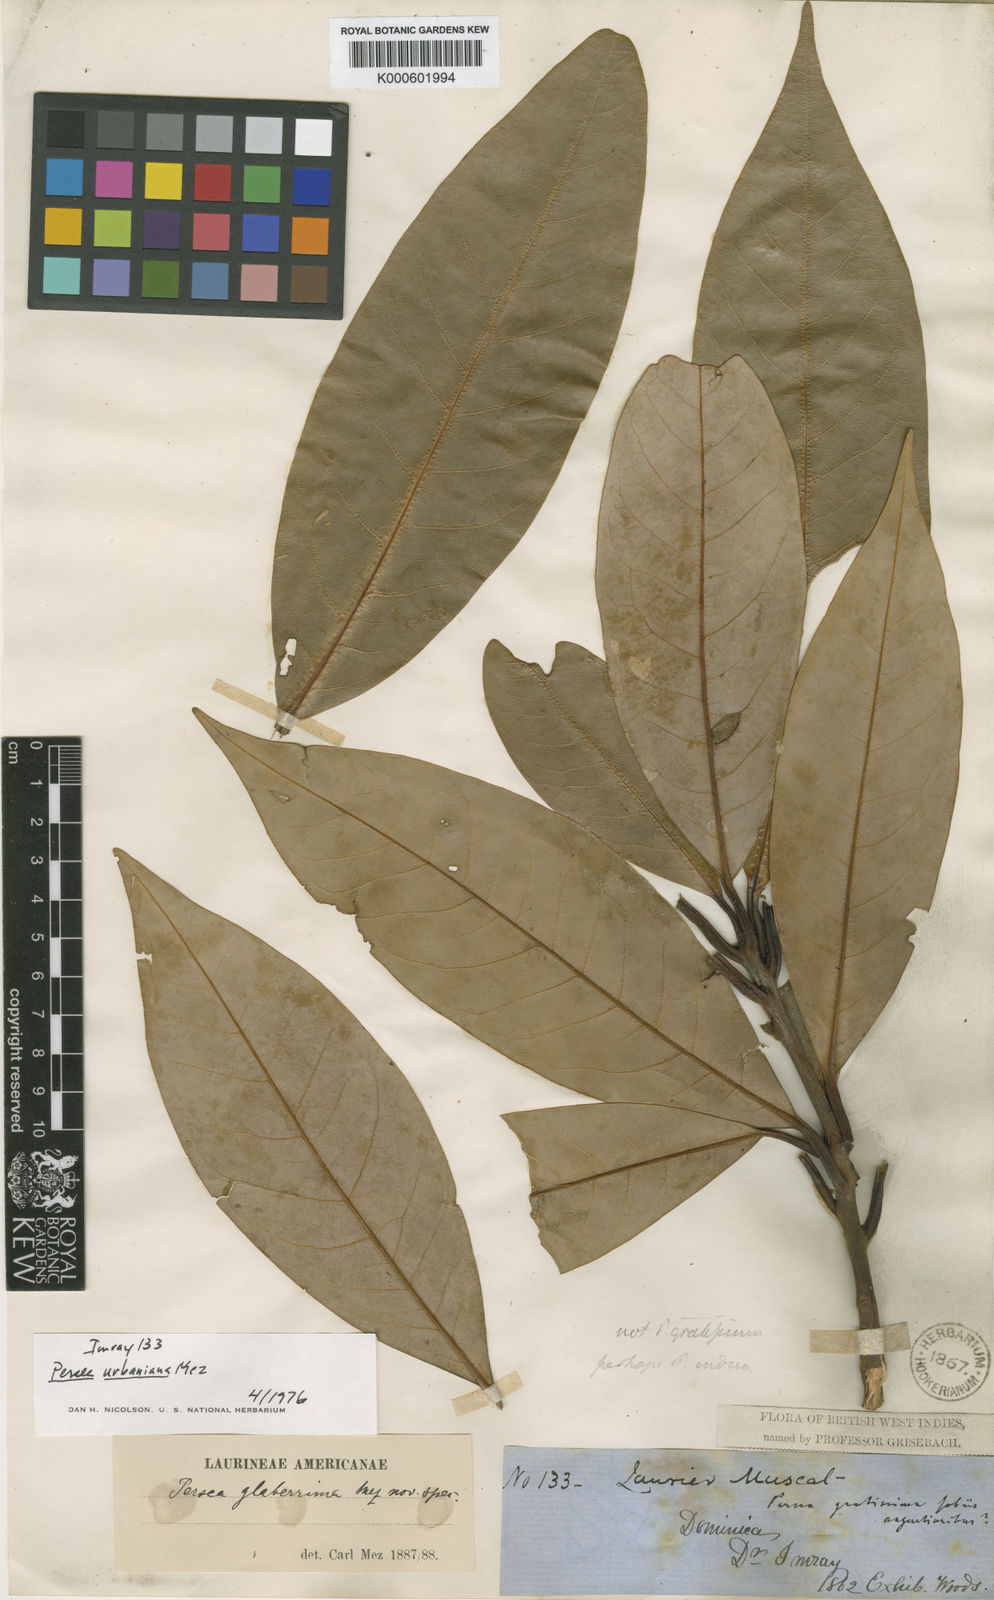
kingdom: Plantae
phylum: Tracheophyta
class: Magnoliopsida
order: Laurales
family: Lauraceae
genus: Persea
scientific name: Persea urbaniana
